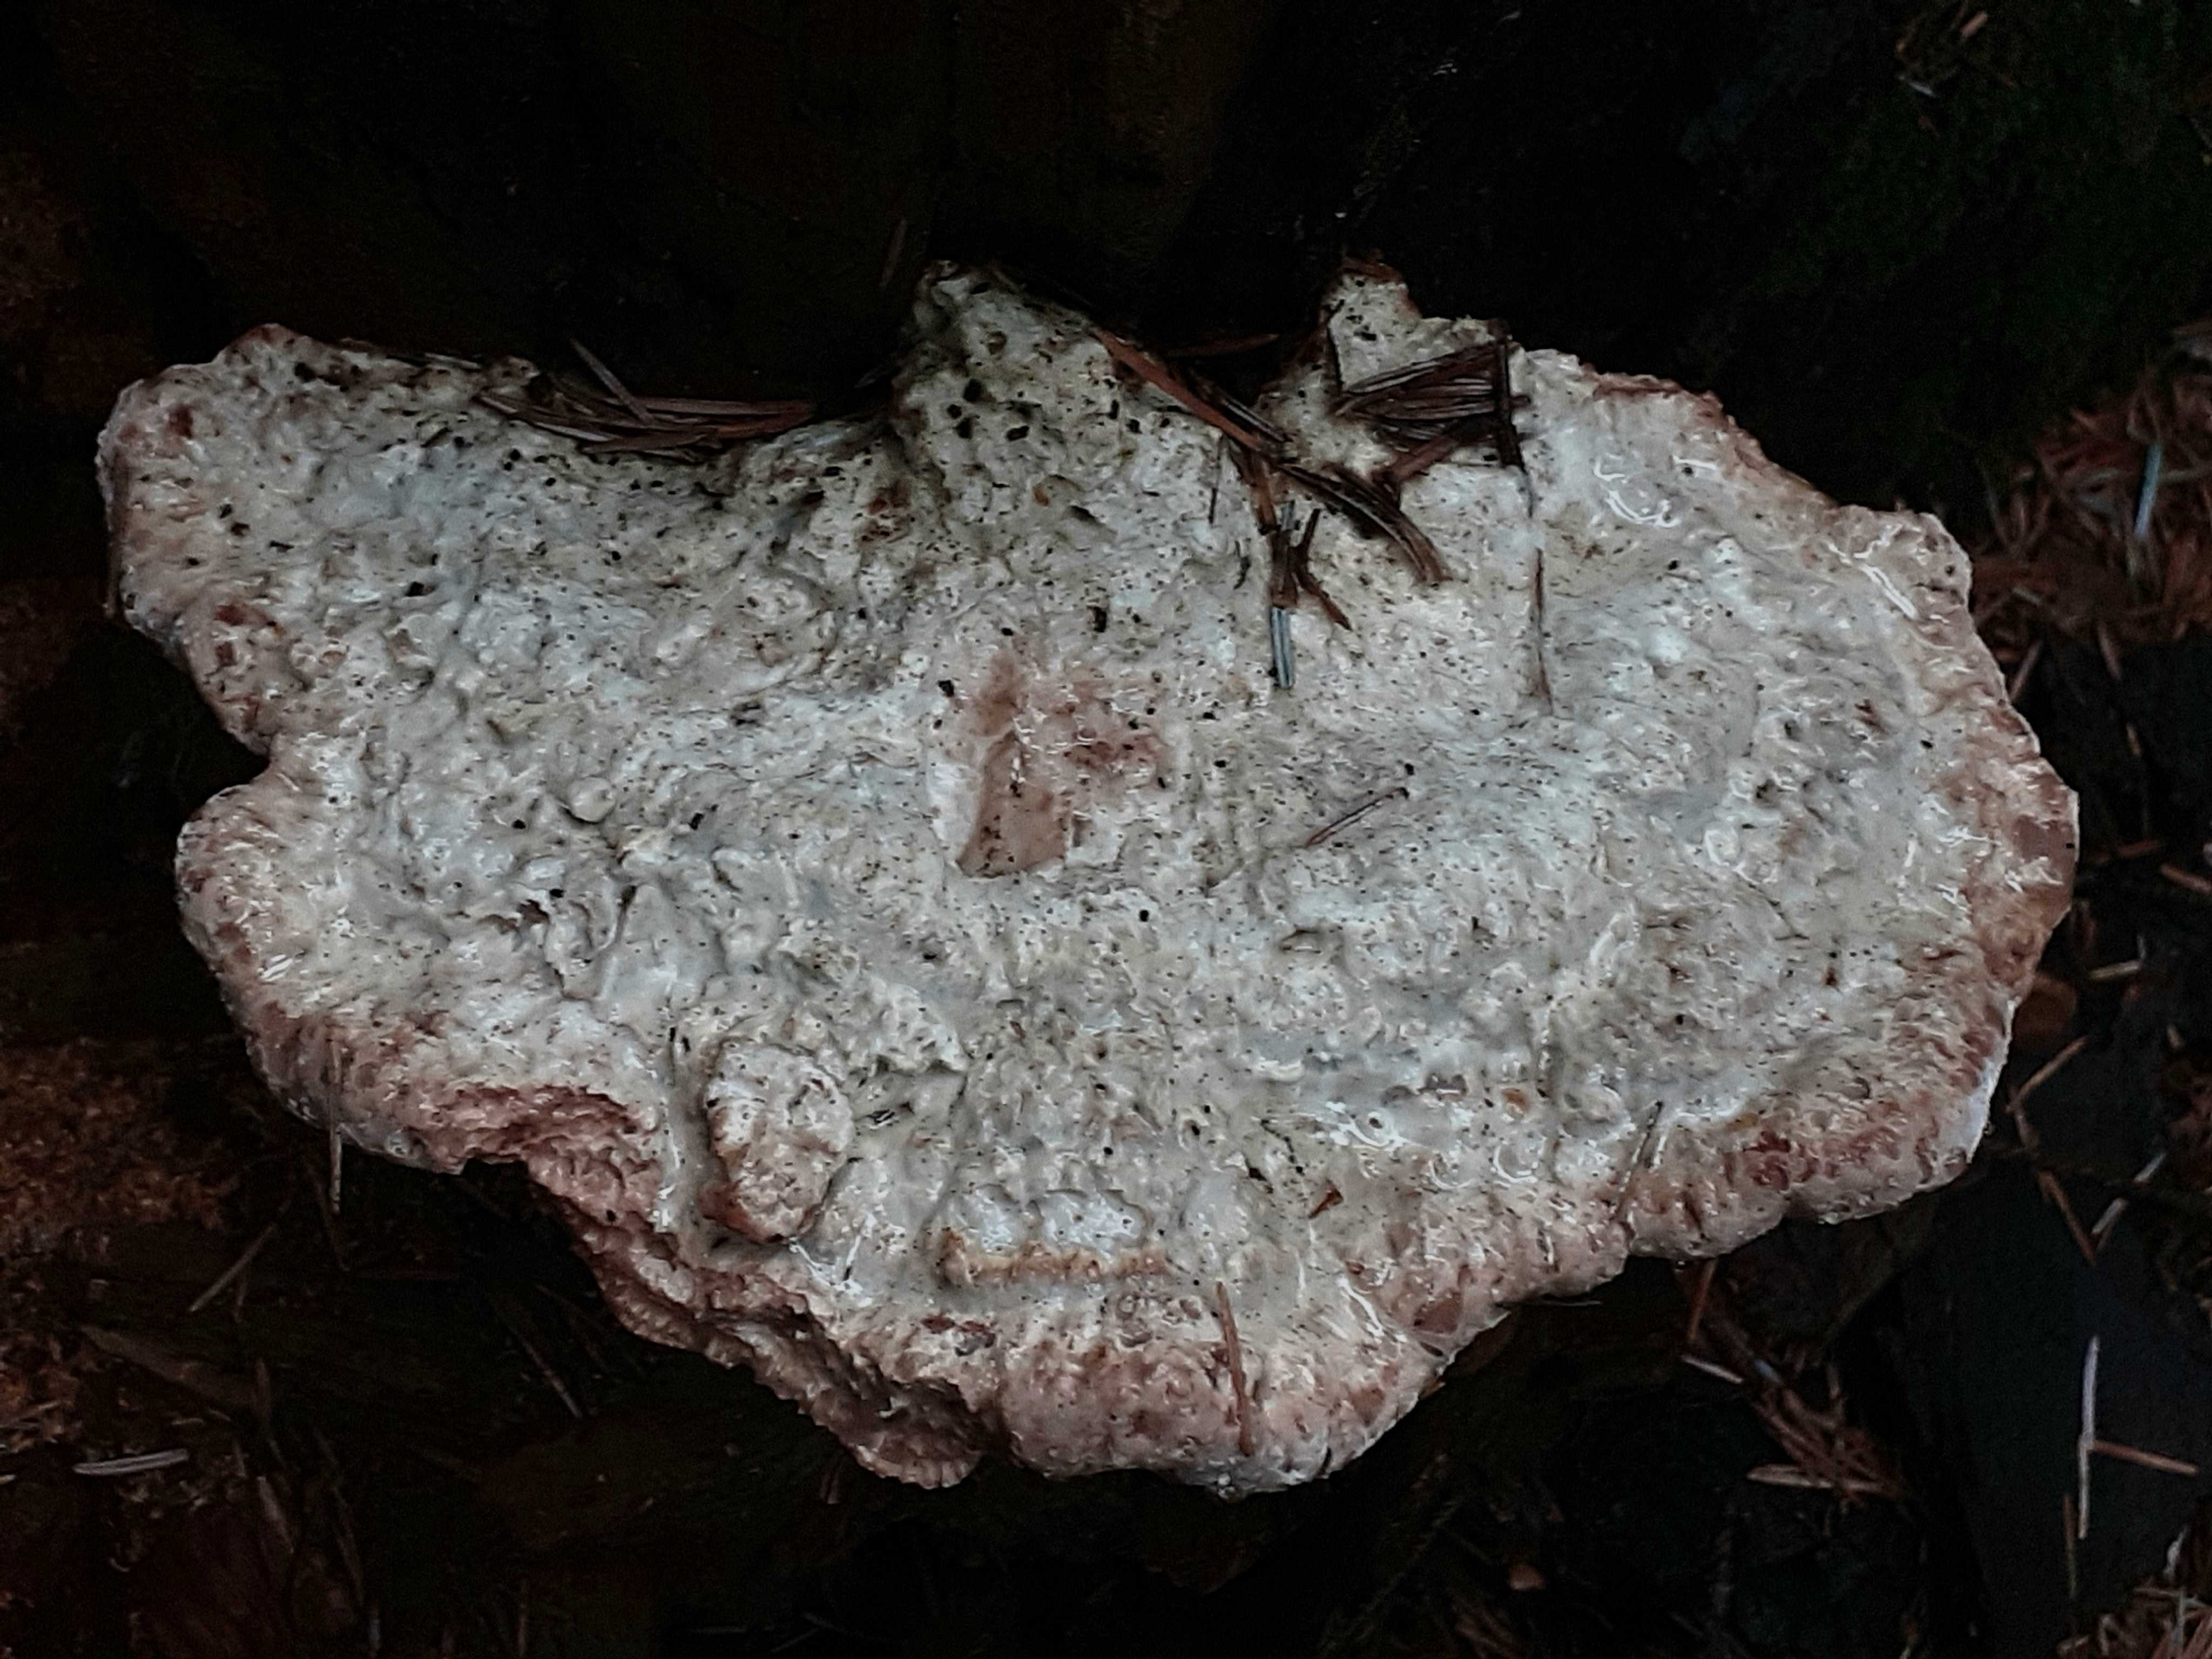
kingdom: Fungi
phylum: Basidiomycota
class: Agaricomycetes
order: Polyporales
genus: Calcipostia
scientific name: Calcipostia guttulata
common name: dråbe-kødporesvamp
